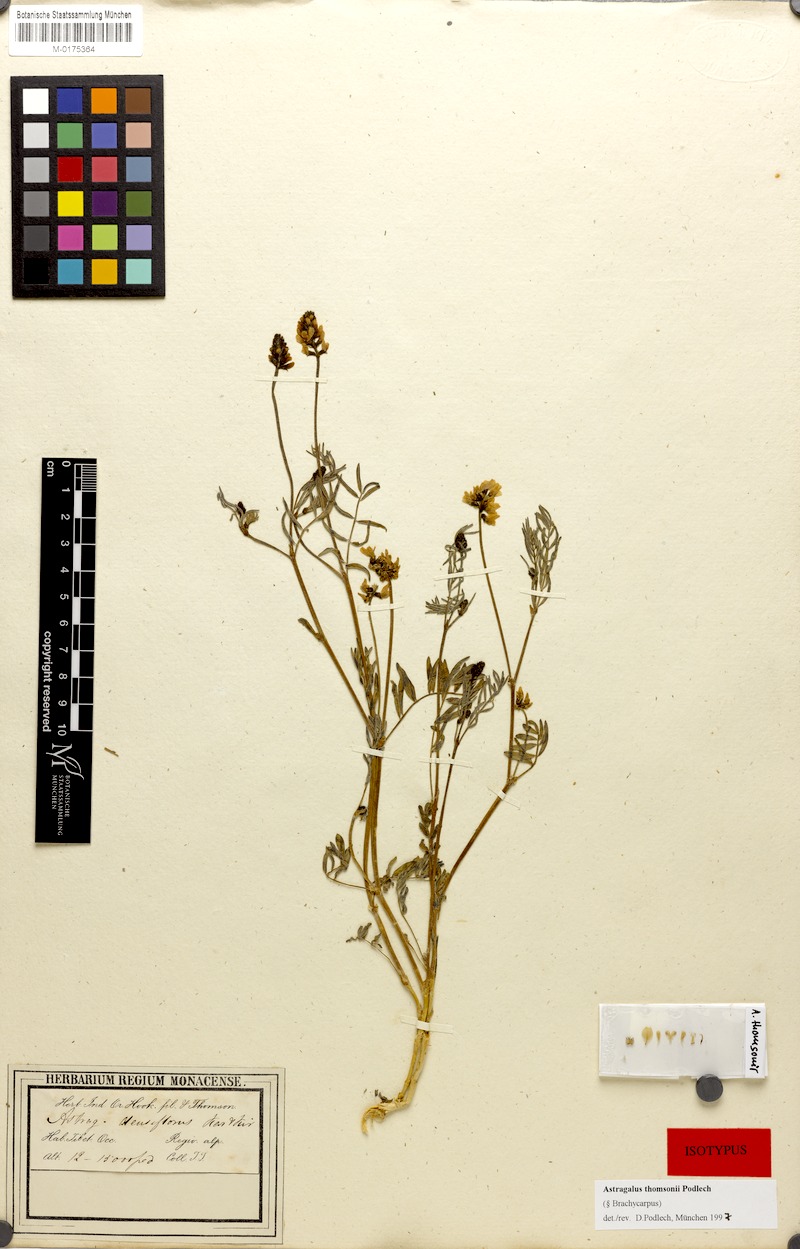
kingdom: Plantae
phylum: Tracheophyta
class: Magnoliopsida
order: Fabales
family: Fabaceae
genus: Astragalus
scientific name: Astragalus thomsonii
